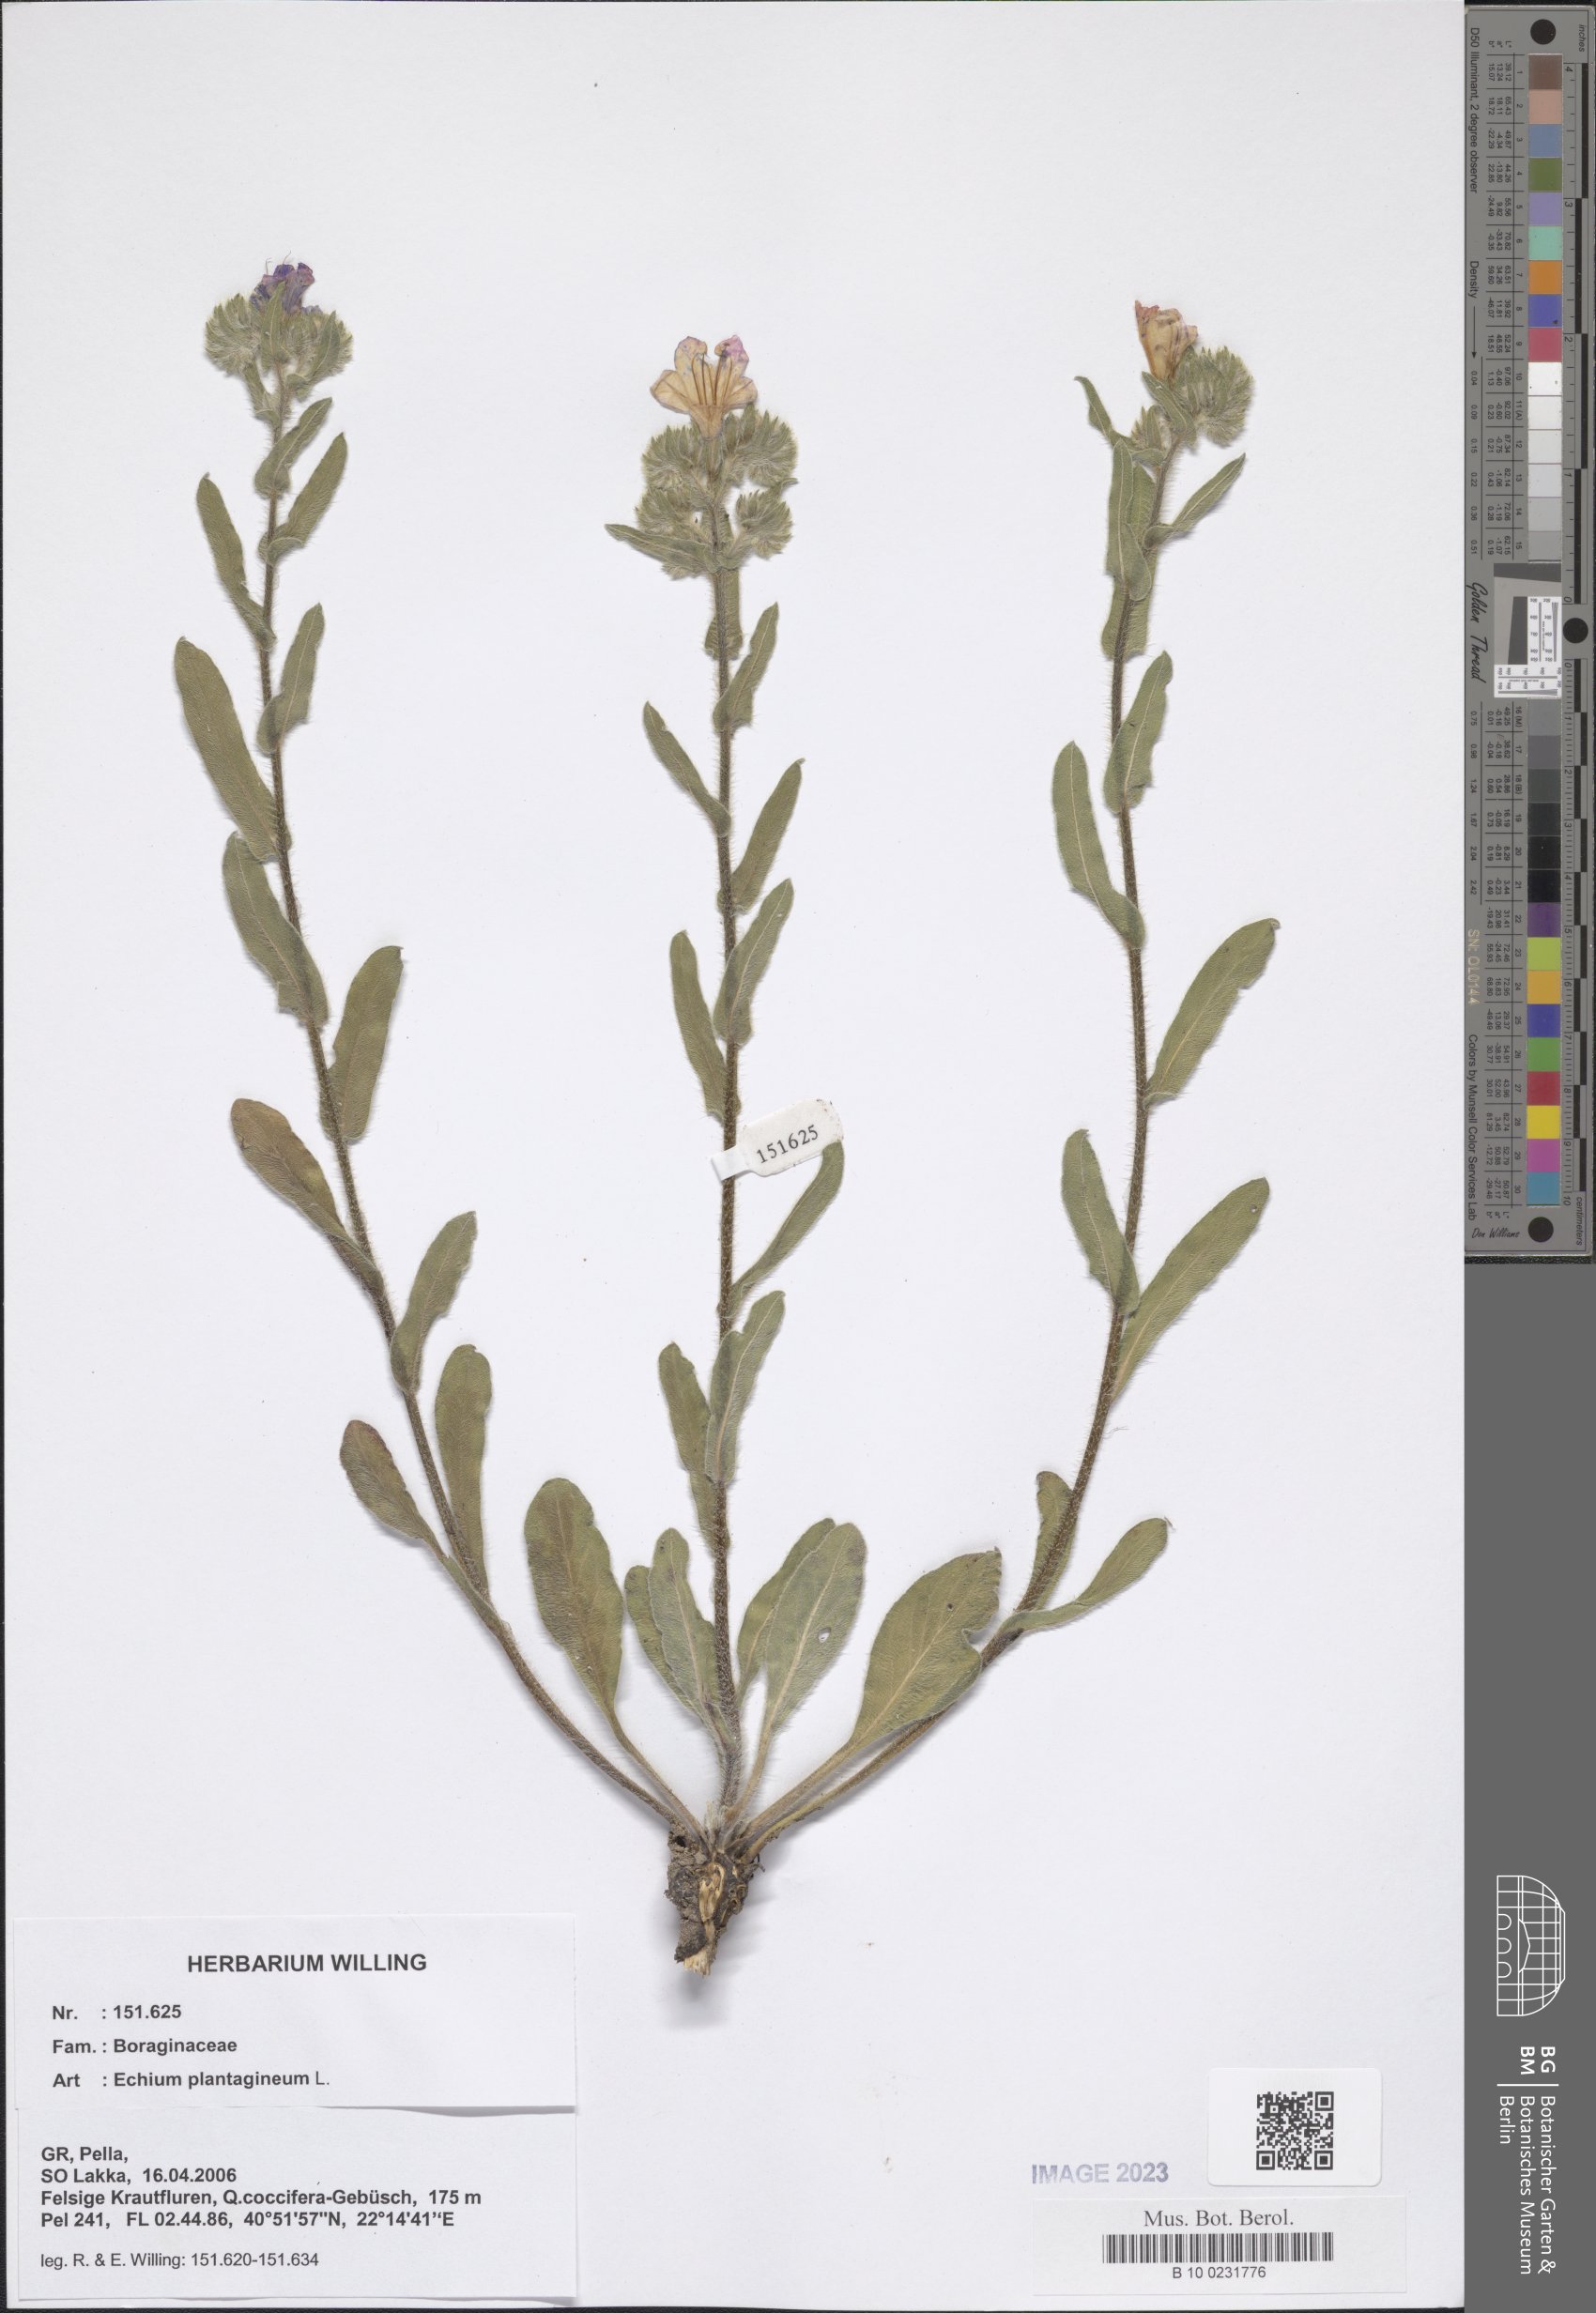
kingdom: Plantae
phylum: Tracheophyta
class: Magnoliopsida
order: Boraginales
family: Boraginaceae
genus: Echium
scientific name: Echium plantagineum
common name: Purple viper's-bugloss
